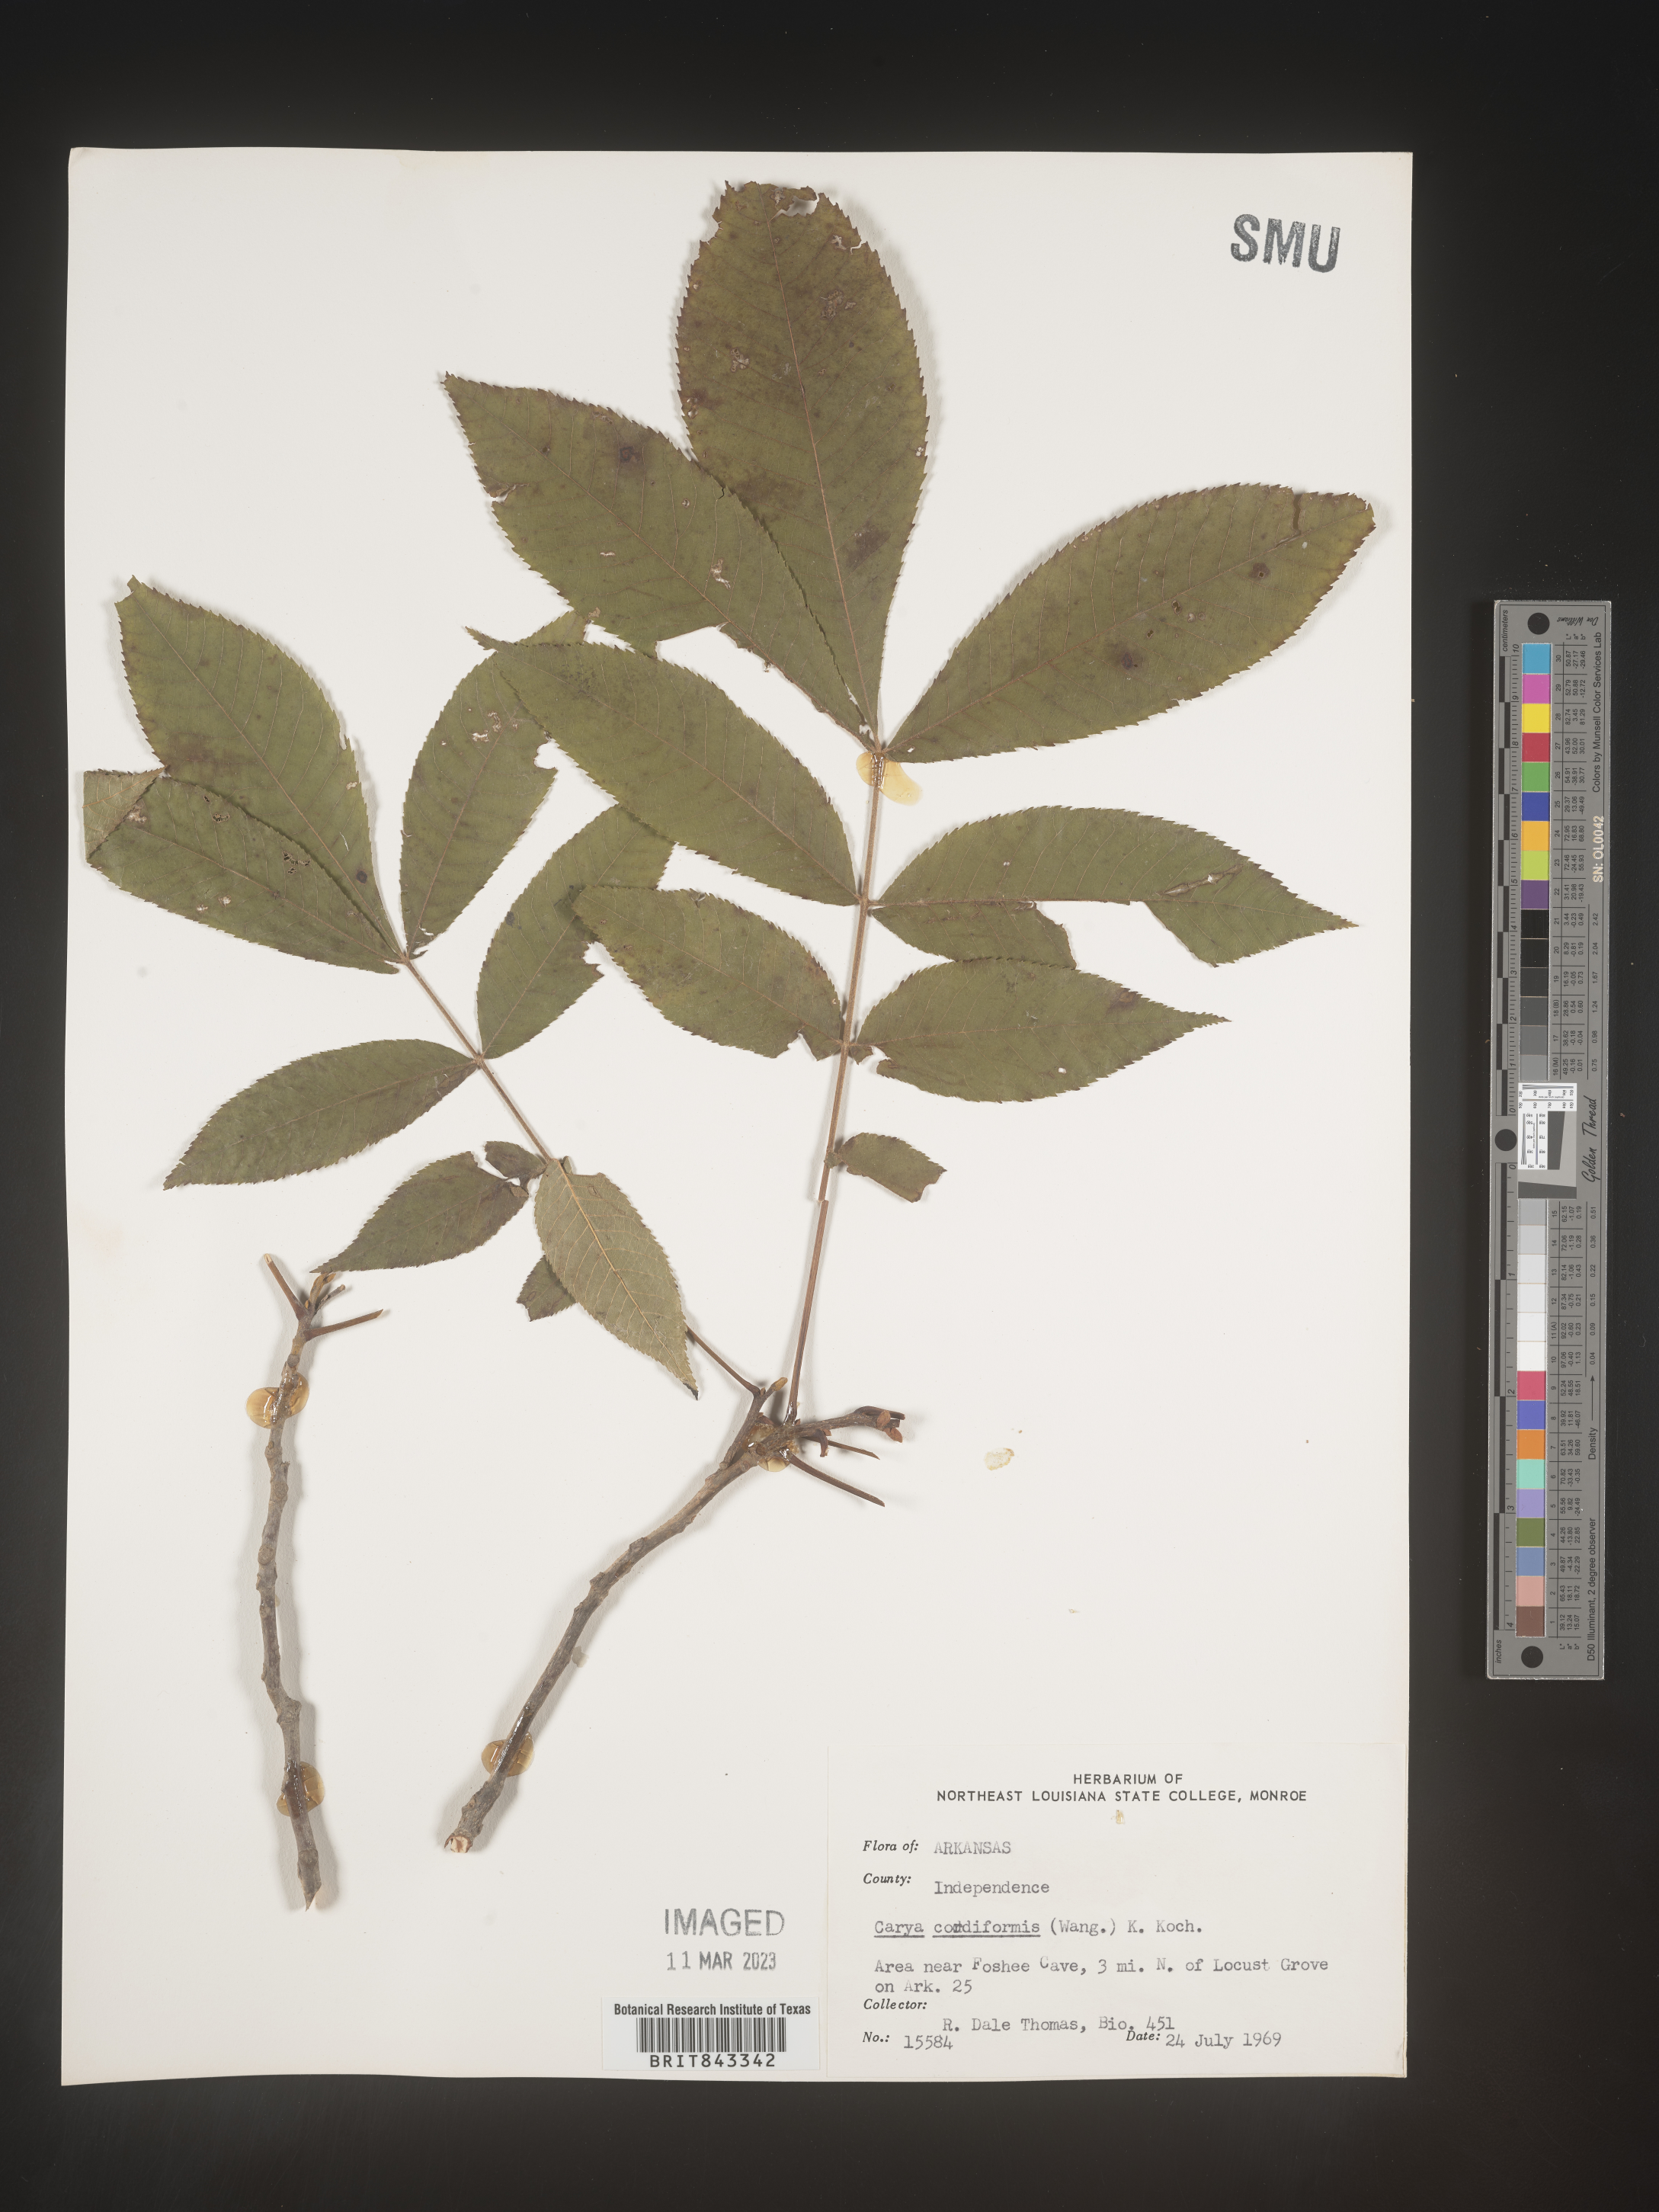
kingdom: Plantae
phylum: Tracheophyta
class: Magnoliopsida
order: Fagales
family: Juglandaceae
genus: Carya
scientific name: Carya cordiformis
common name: Bitternut hickory
